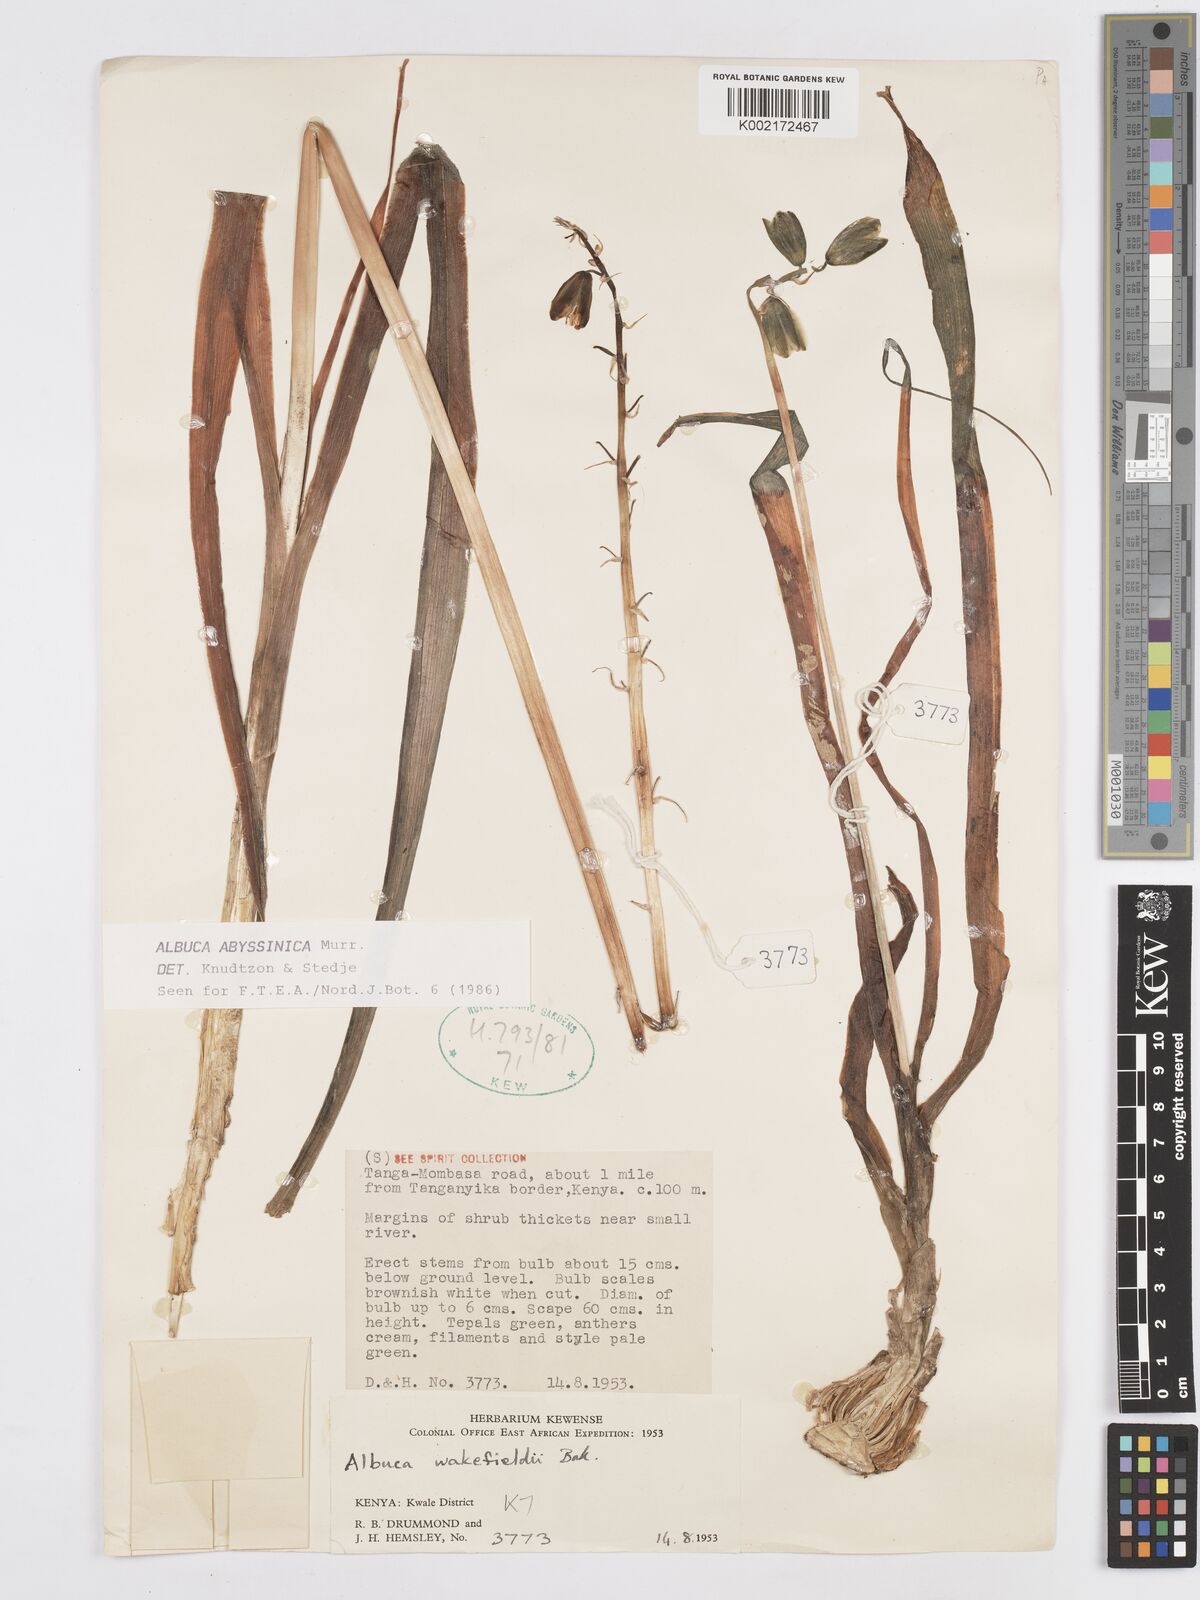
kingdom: Plantae
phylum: Tracheophyta
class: Liliopsida
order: Asparagales
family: Asparagaceae
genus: Albuca
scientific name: Albuca abyssinica
